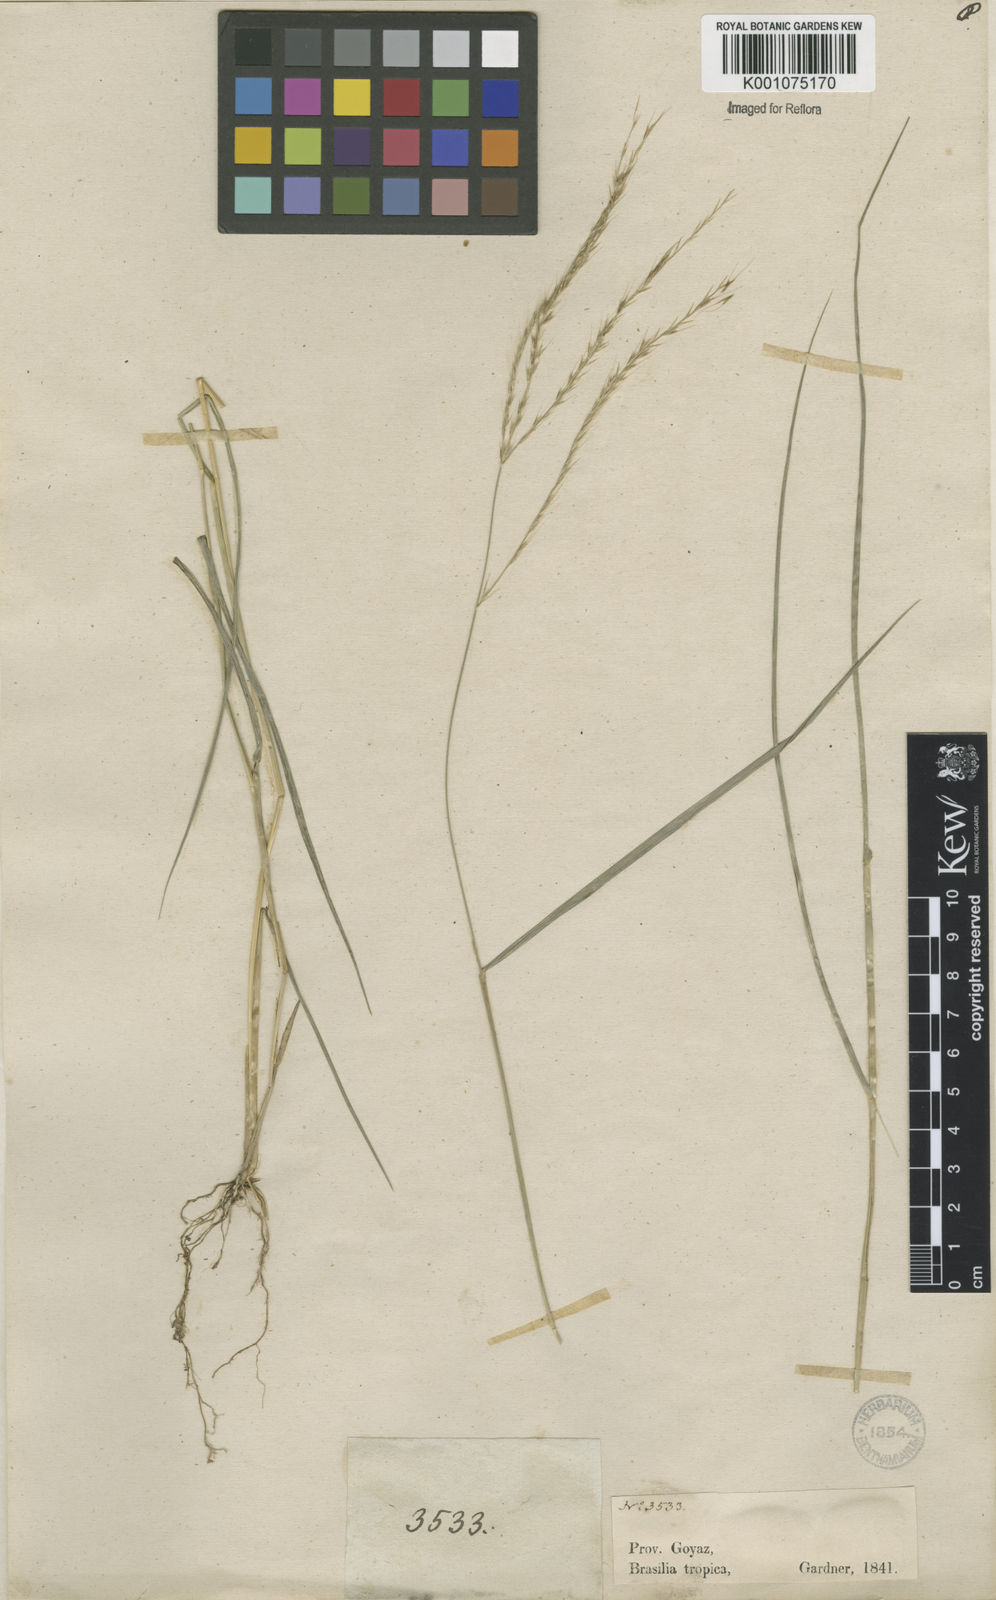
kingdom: Plantae
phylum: Tracheophyta
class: Liliopsida
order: Poales
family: Poaceae
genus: Leptochloa
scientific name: Leptochloa anisopoda
